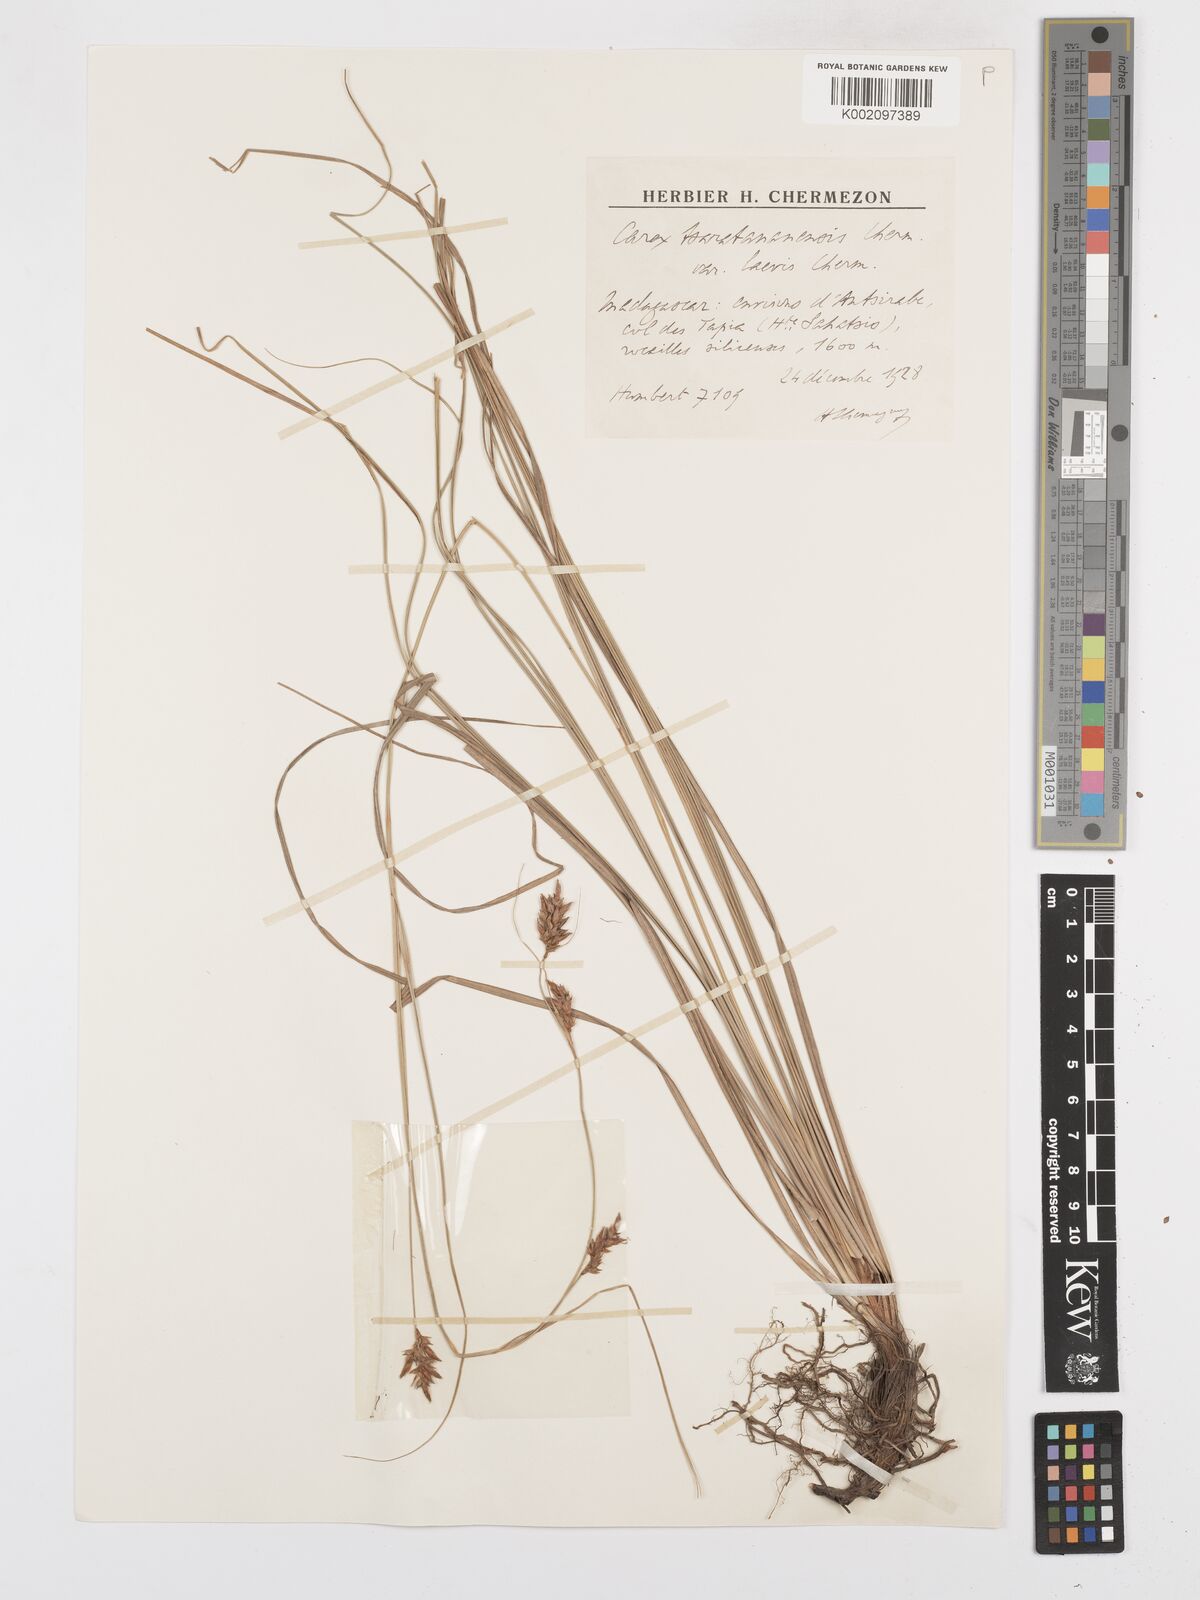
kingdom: Plantae
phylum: Tracheophyta
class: Liliopsida
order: Poales
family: Cyperaceae
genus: Carex
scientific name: Carex tsaratananensis
